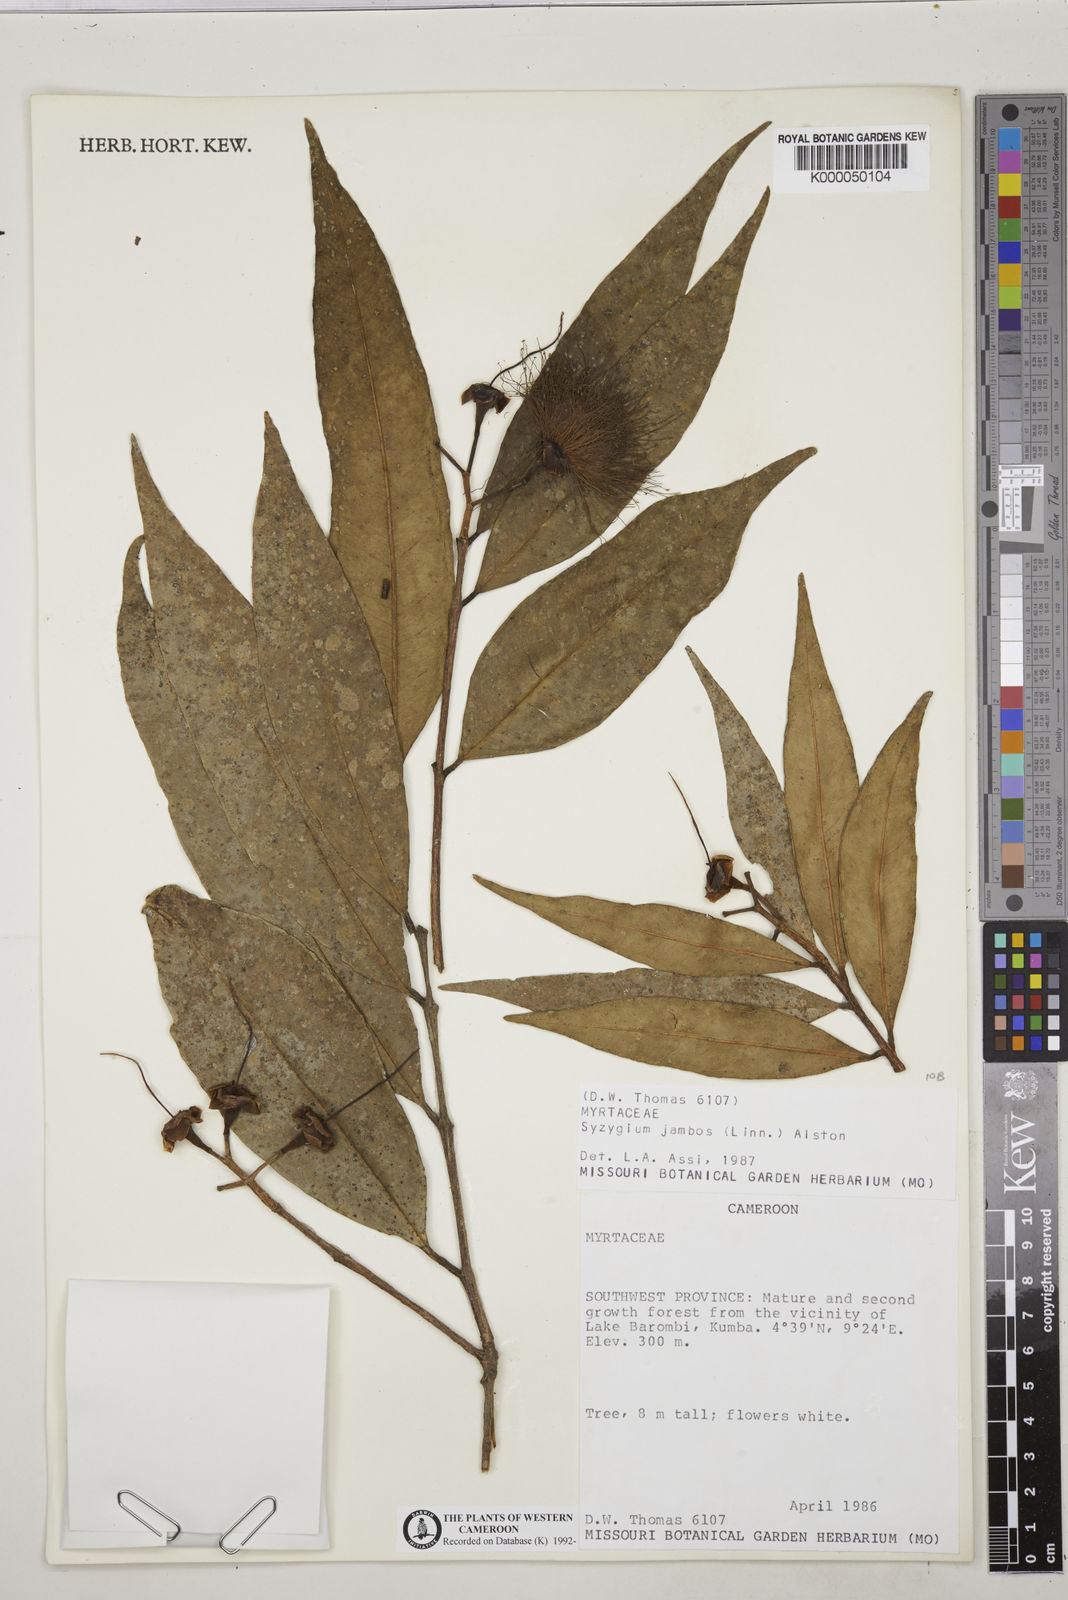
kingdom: Plantae
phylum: Tracheophyta
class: Magnoliopsida
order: Myrtales
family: Myrtaceae
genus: Syzygium
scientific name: Syzygium jambos
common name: Malabar plum
